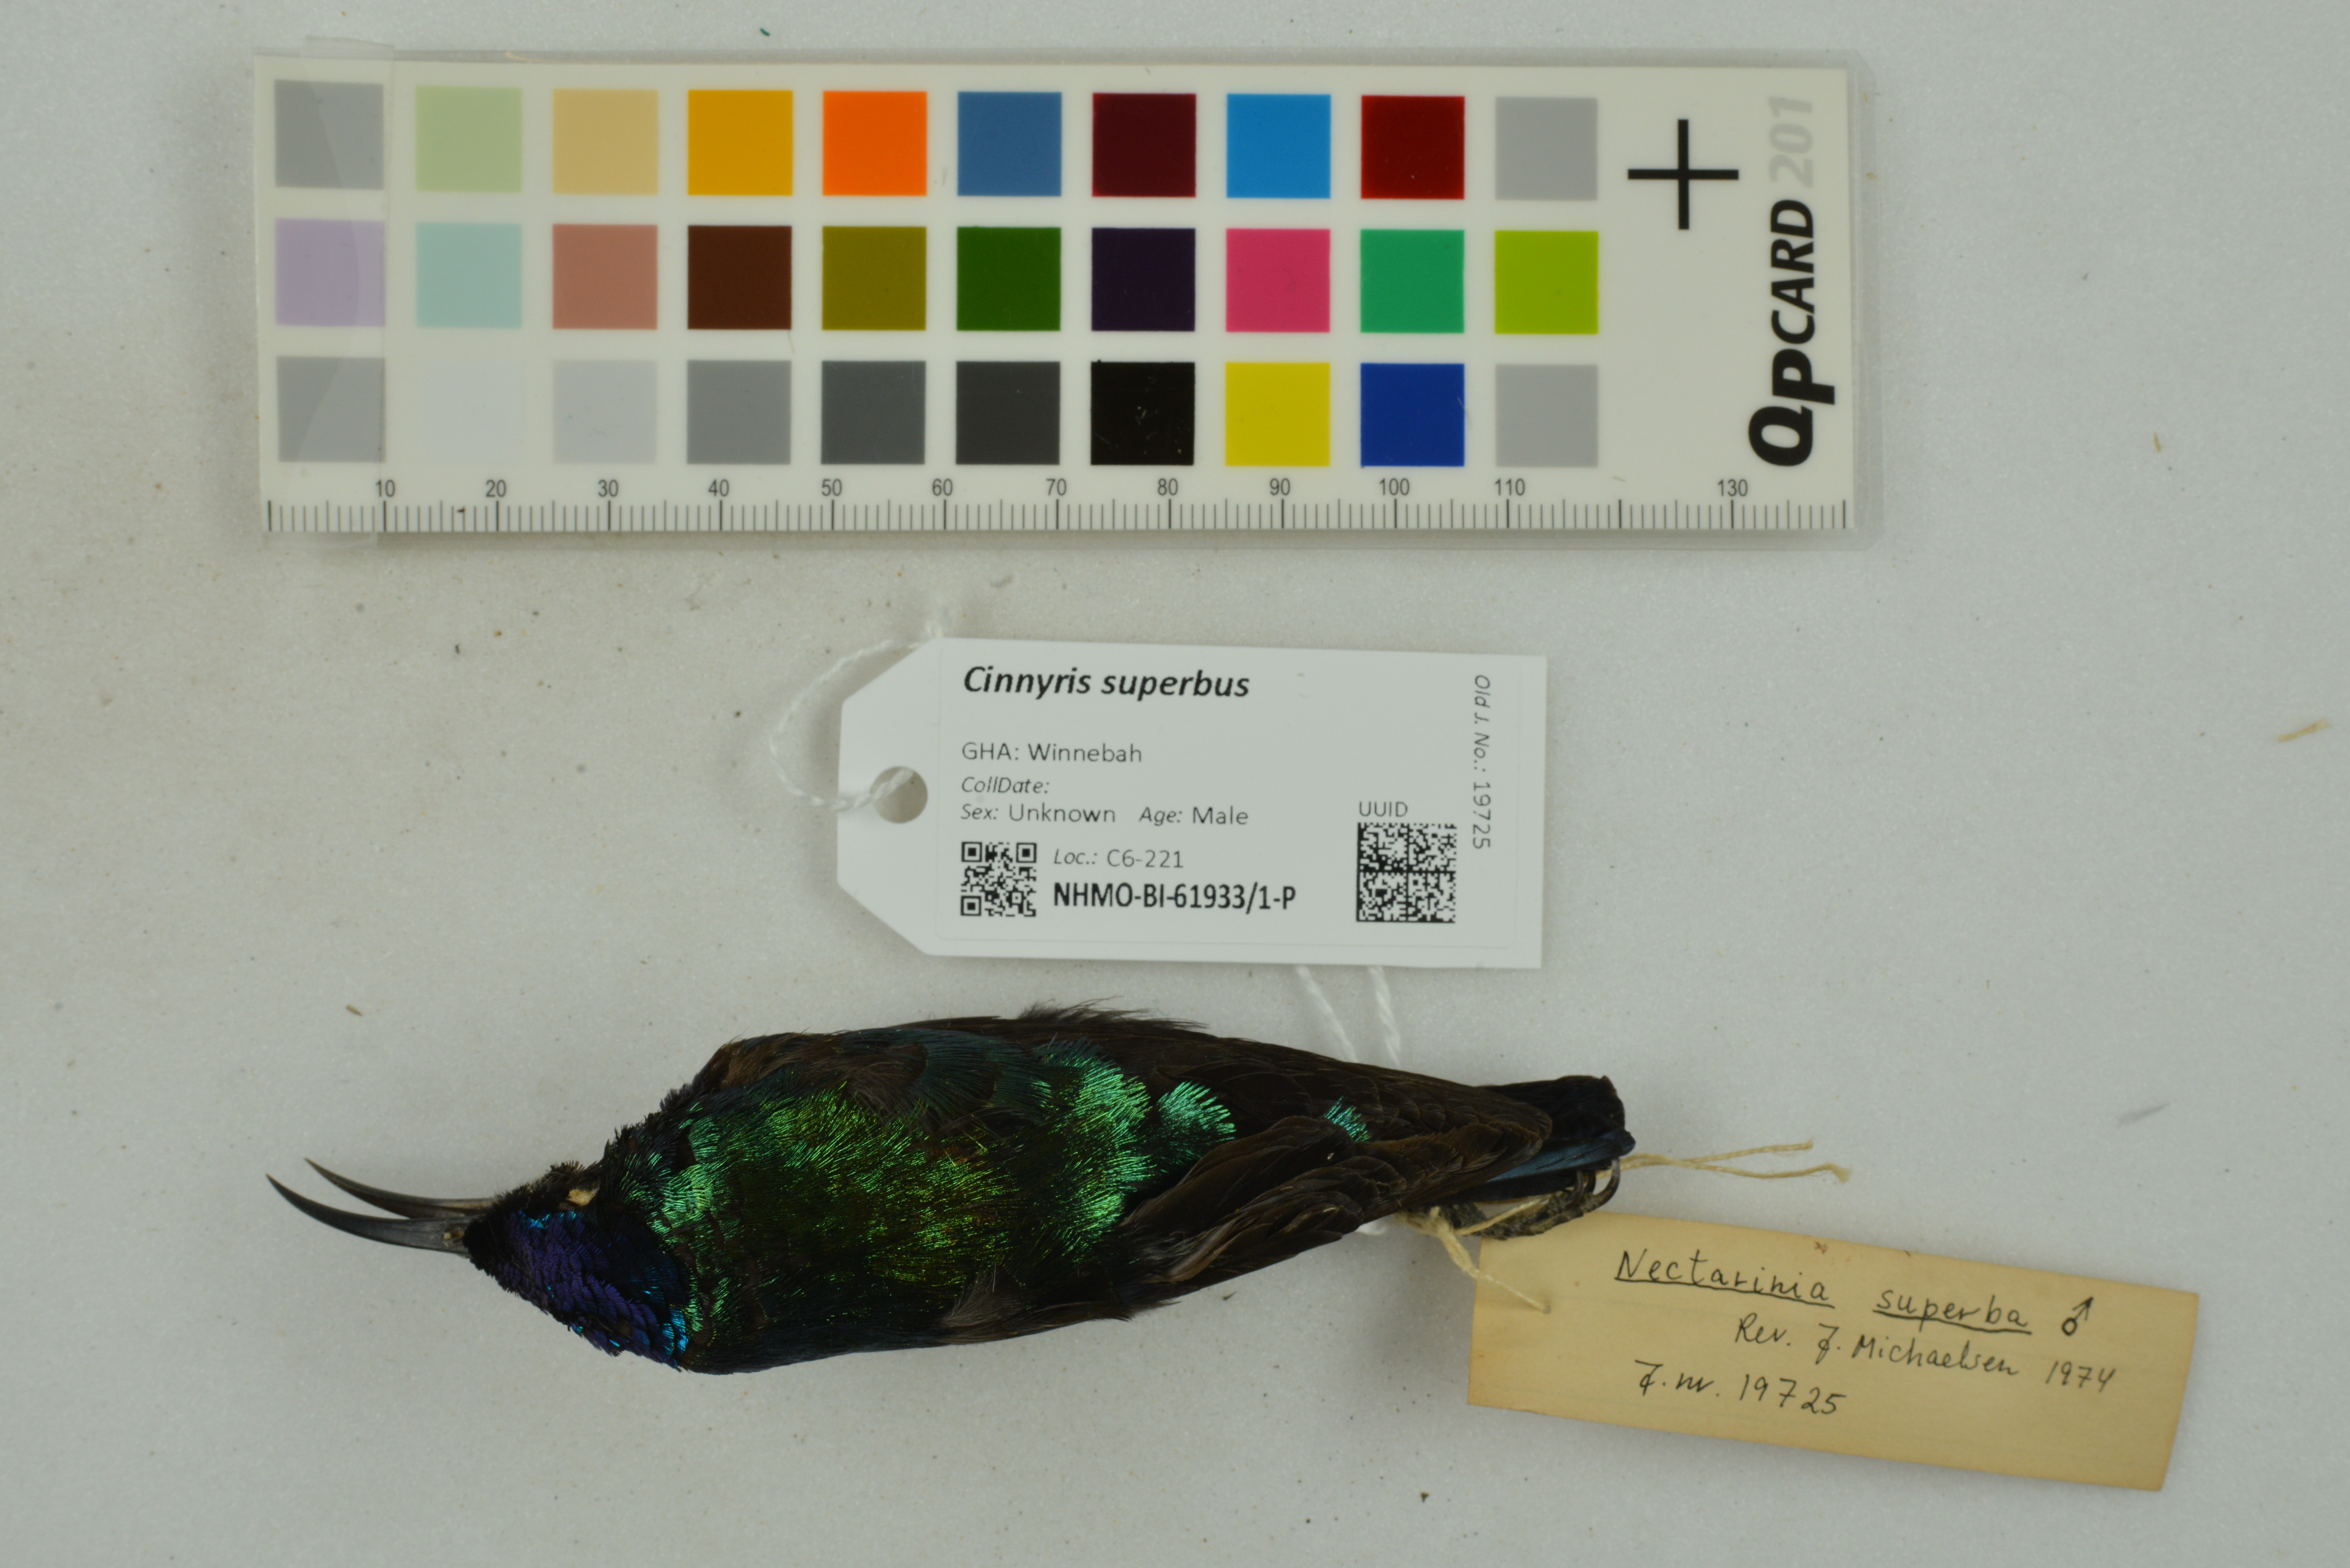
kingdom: Animalia
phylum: Chordata
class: Aves
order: Passeriformes
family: Nectariniidae
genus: Cinnyris
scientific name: Cinnyris superbus
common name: Superb sunbird
